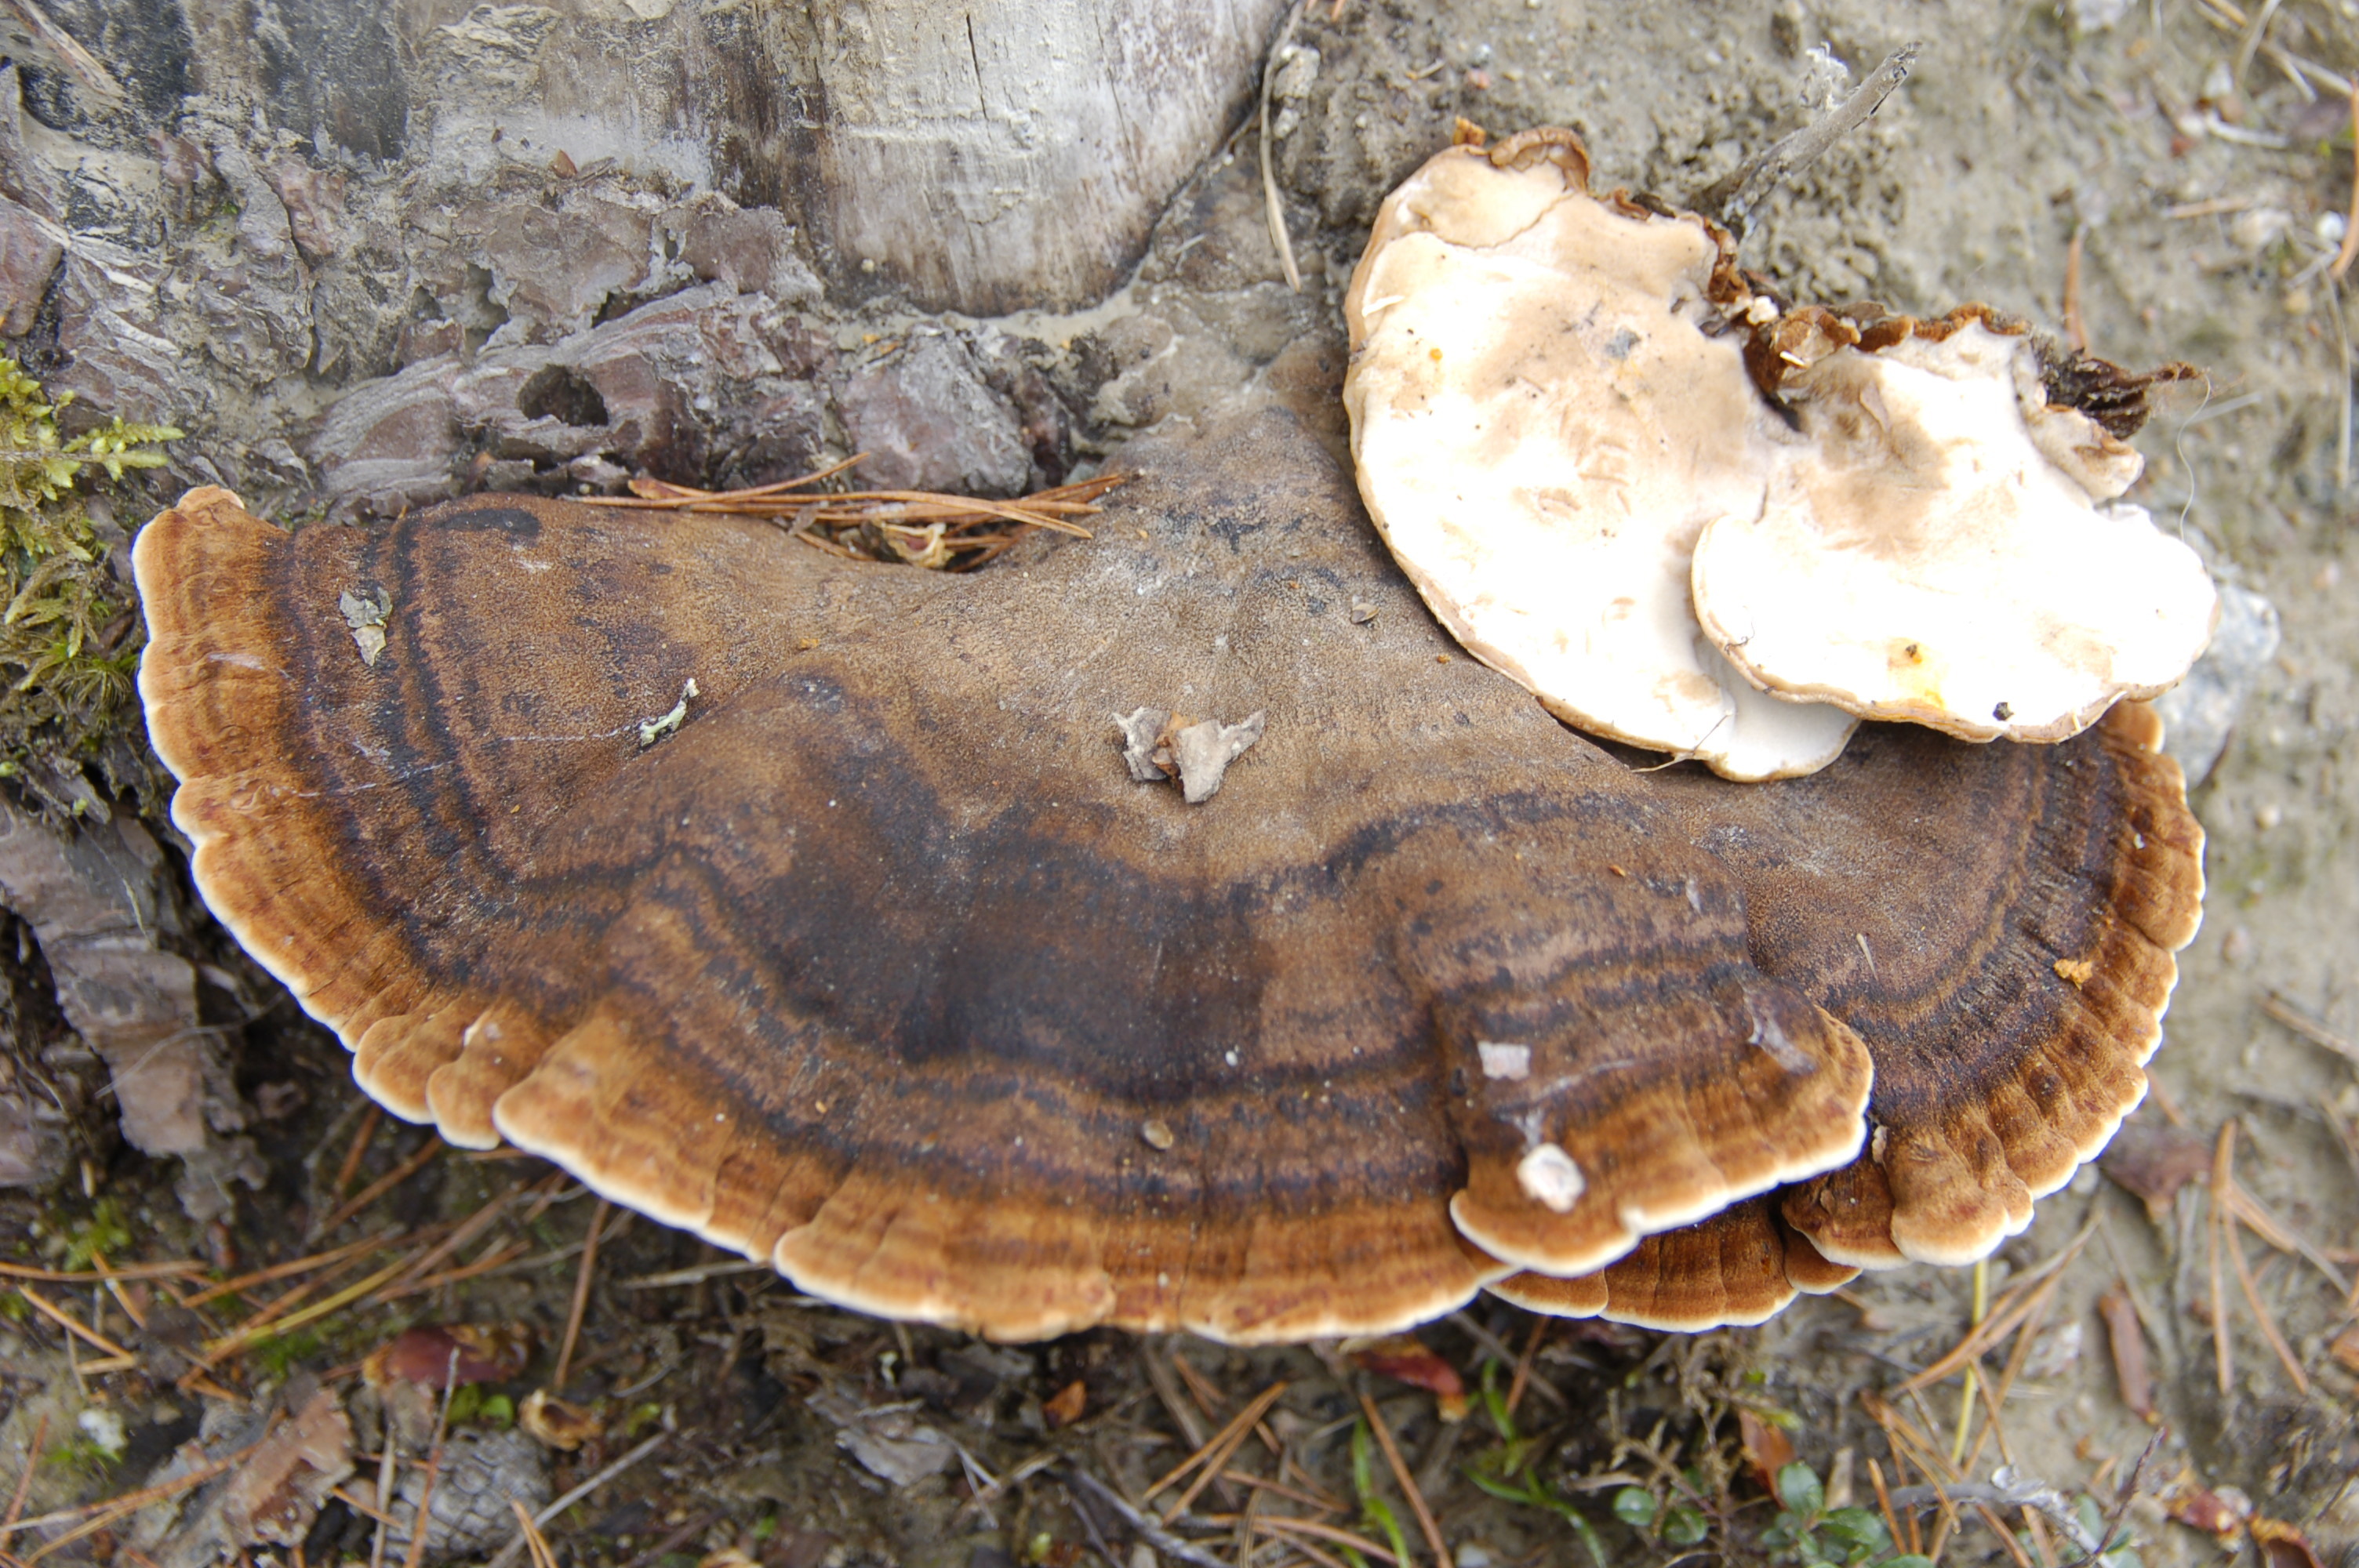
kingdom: Fungi
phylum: Basidiomycota
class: Agaricomycetes
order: Polyporales
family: Ischnodermataceae
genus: Ischnoderma
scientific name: Ischnoderma benzoinum
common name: Benzoin bracket
